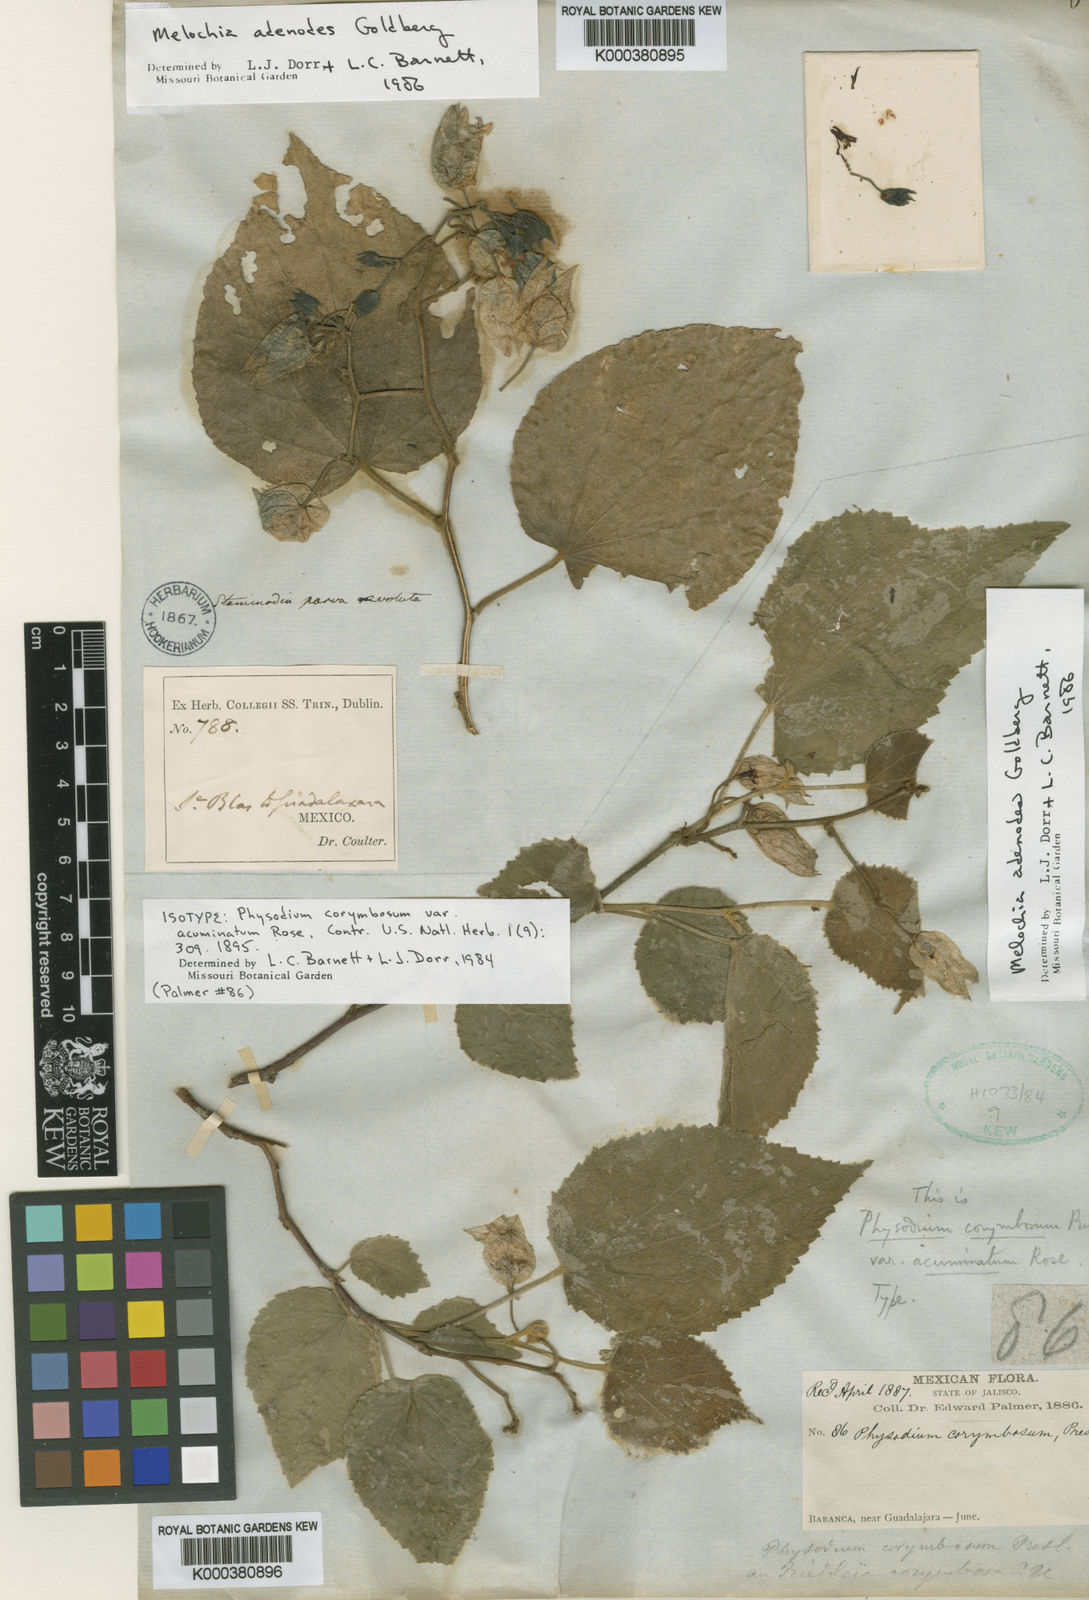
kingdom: Plantae
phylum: Tracheophyta
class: Magnoliopsida
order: Malvales
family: Malvaceae
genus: Physodium
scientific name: Physodium corymbosum
